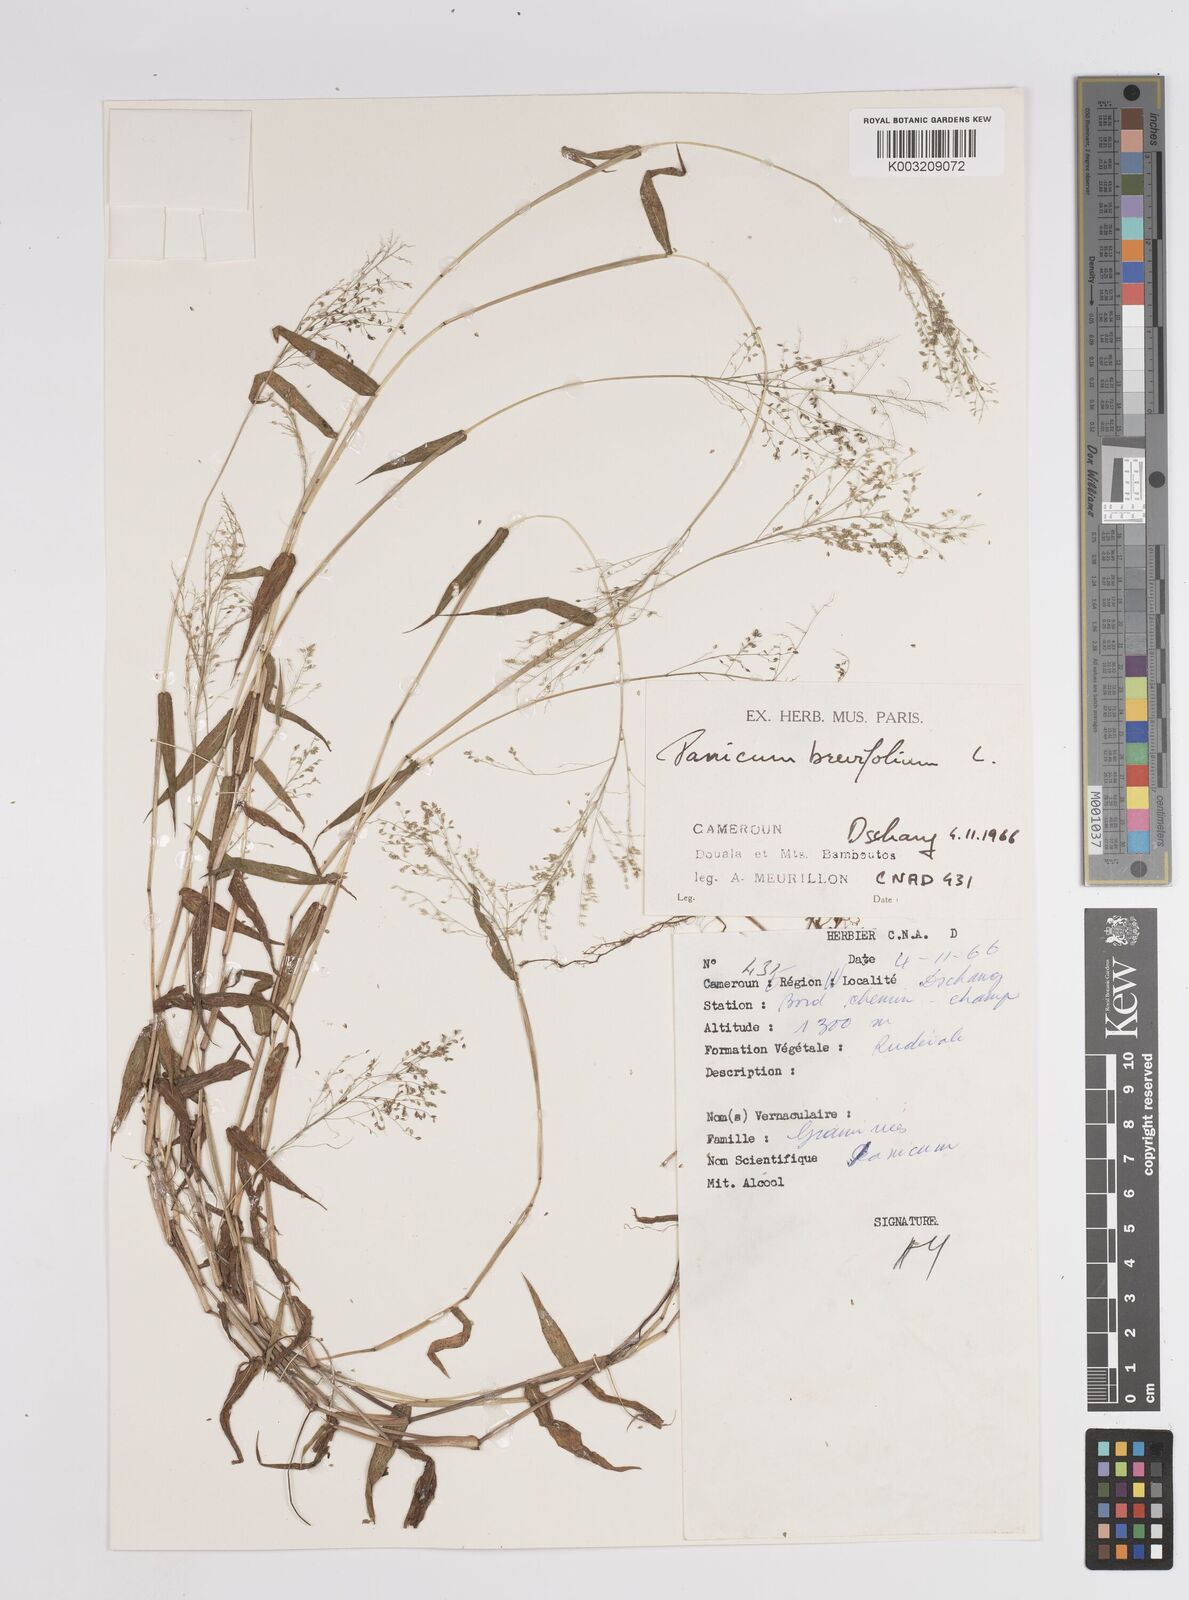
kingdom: Plantae
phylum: Tracheophyta
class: Liliopsida
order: Poales
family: Poaceae
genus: Panicum
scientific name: Panicum brevifolium
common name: Shortleaf panic grass
